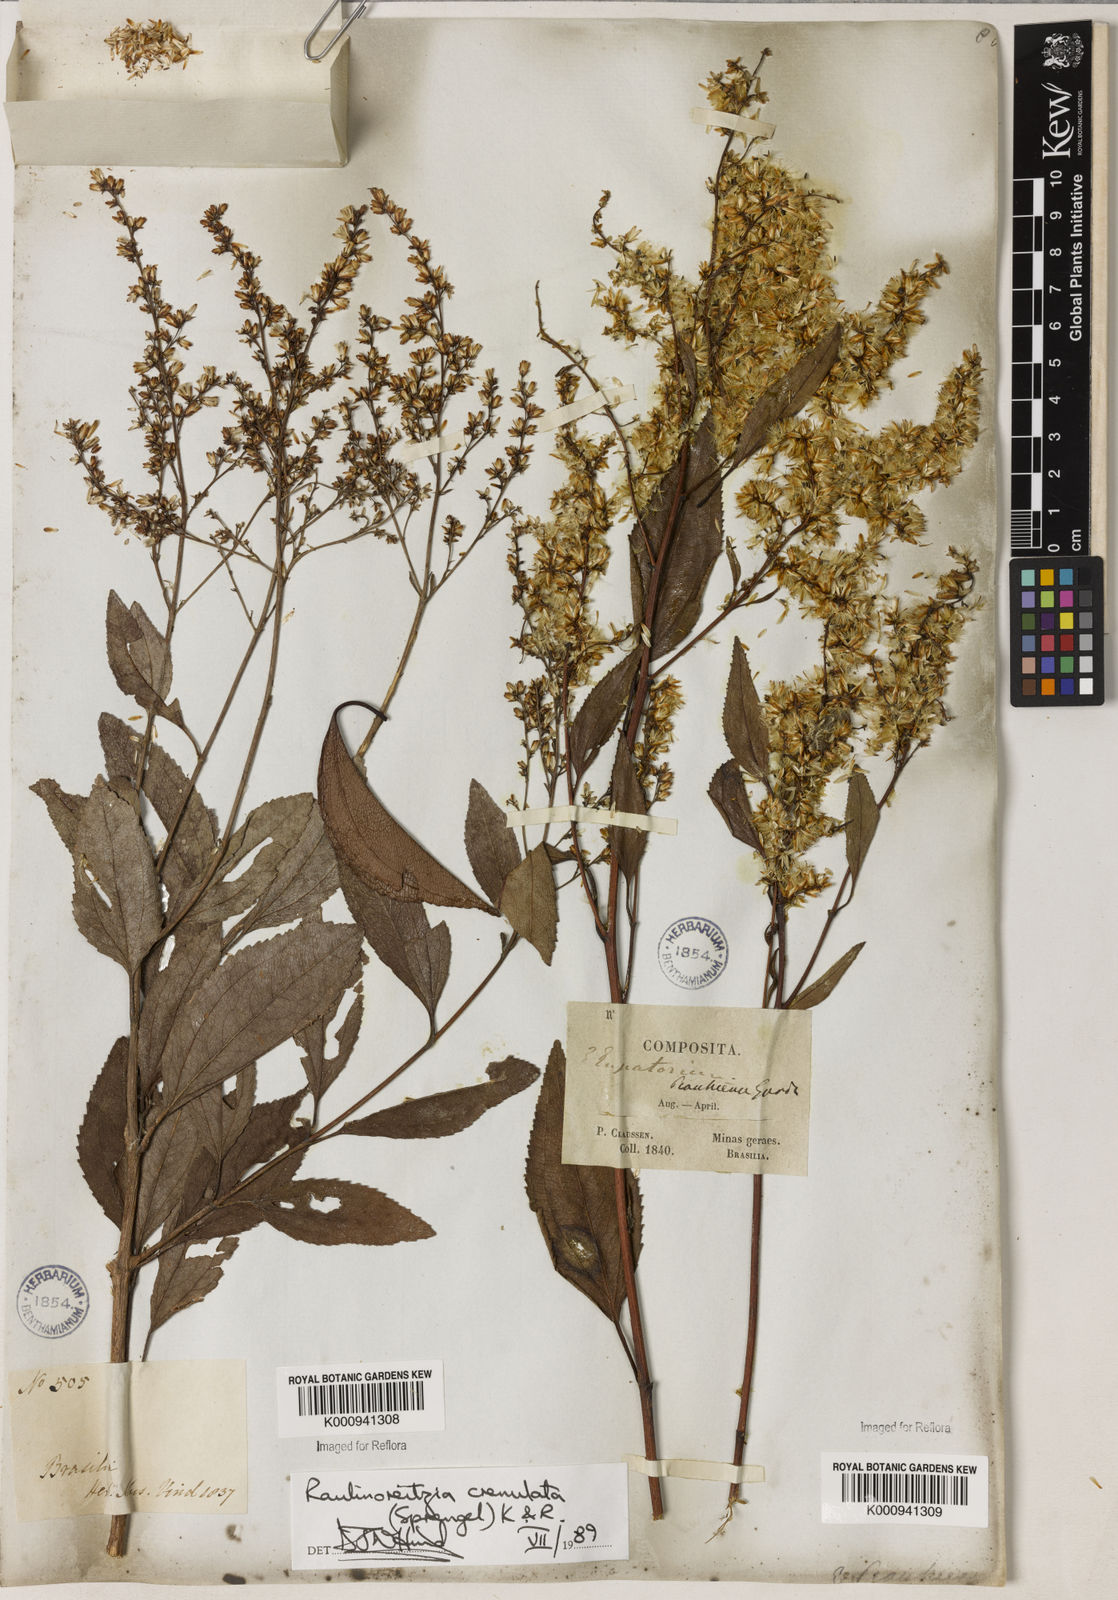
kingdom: Plantae
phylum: Tracheophyta
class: Magnoliopsida
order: Asterales
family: Asteraceae
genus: Raulinoreitzia
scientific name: Raulinoreitzia crenulata
